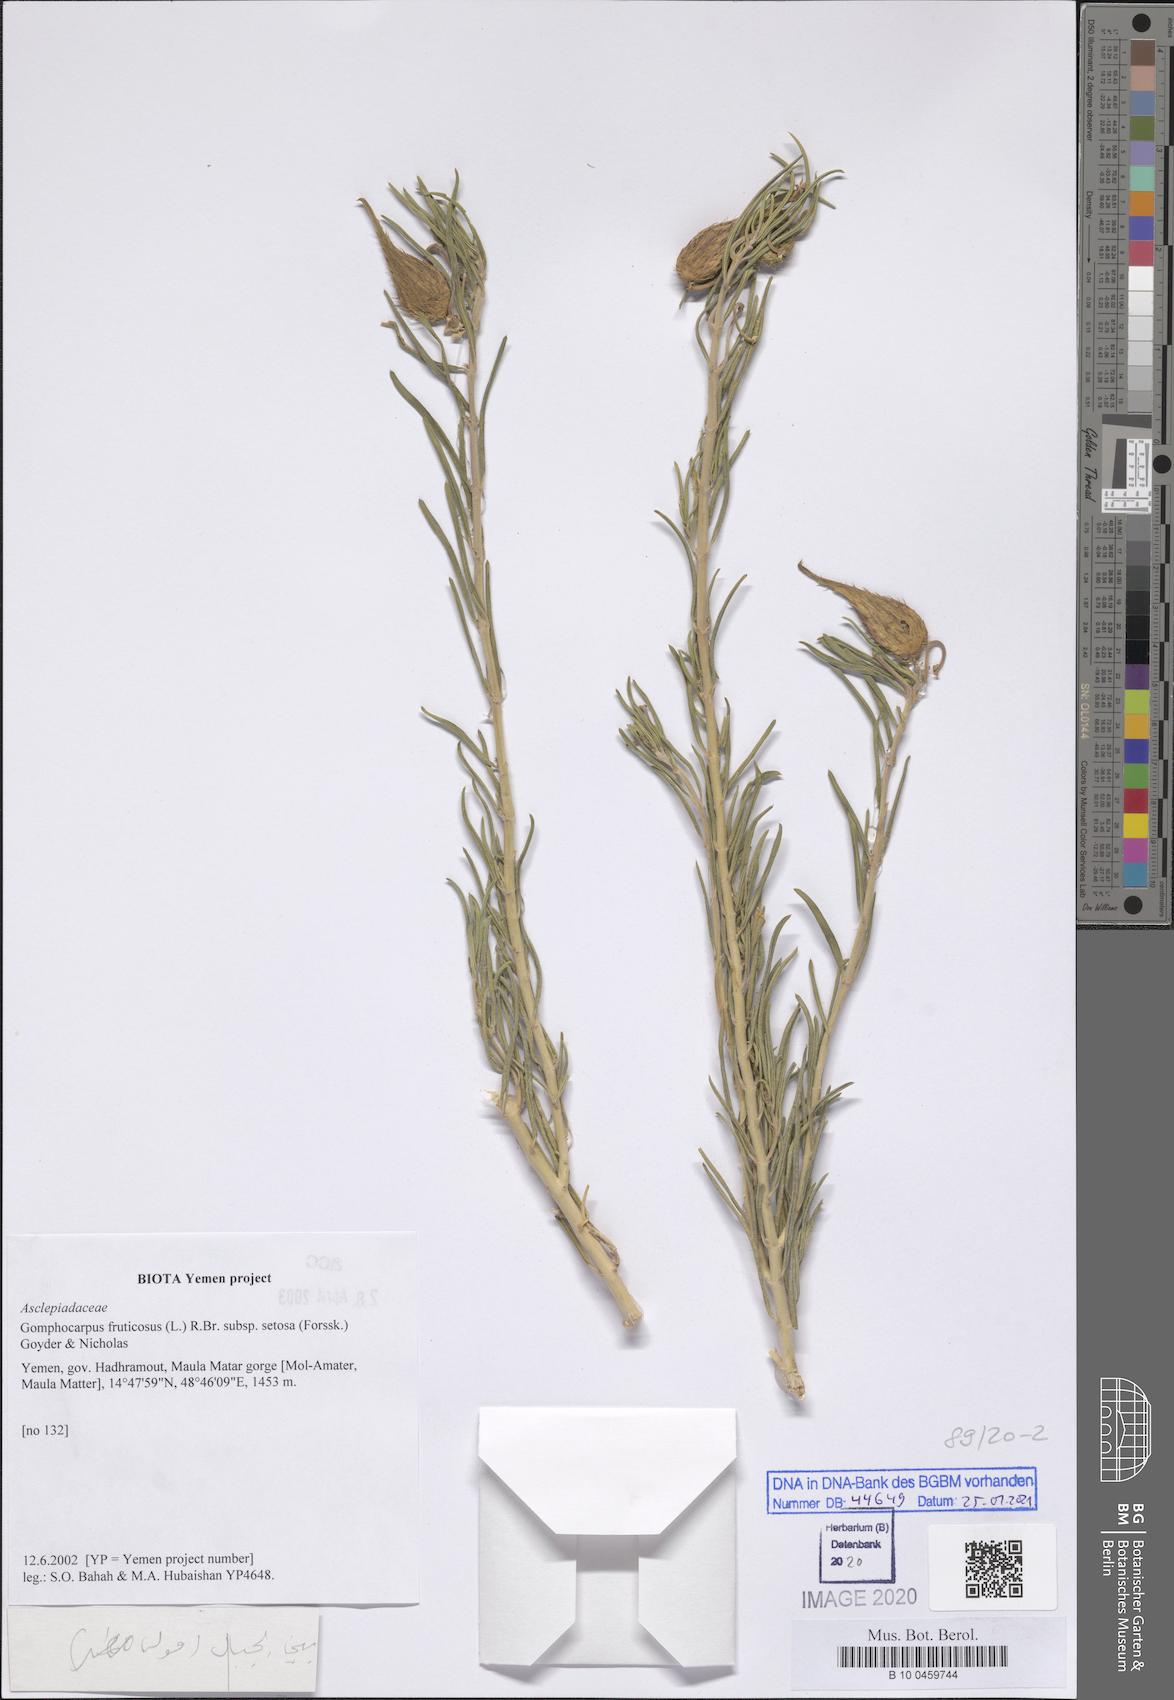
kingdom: Plantae
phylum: Tracheophyta
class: Magnoliopsida
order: Gentianales
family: Apocynaceae
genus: Gomphocarpus
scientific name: Gomphocarpus fruticosus
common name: Milkweed
